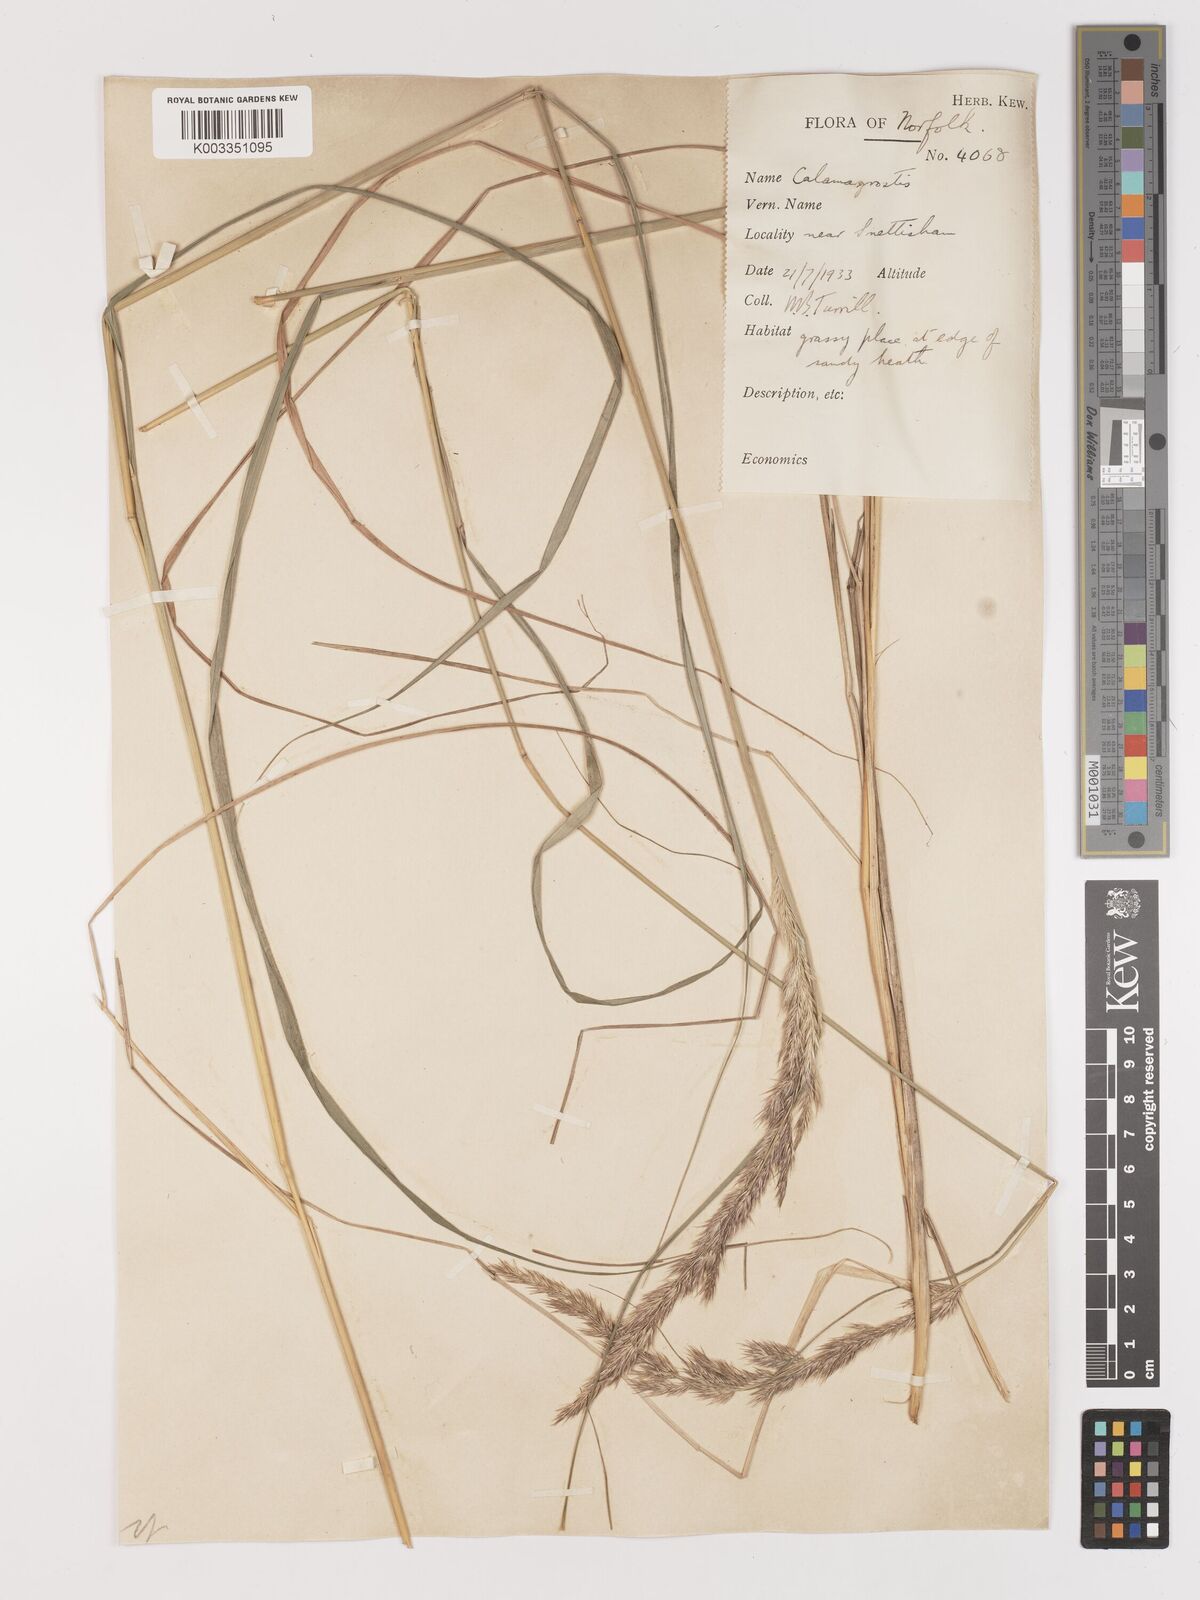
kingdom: Plantae
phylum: Tracheophyta
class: Liliopsida
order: Poales
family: Poaceae
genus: Calamagrostis
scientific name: Calamagrostis
